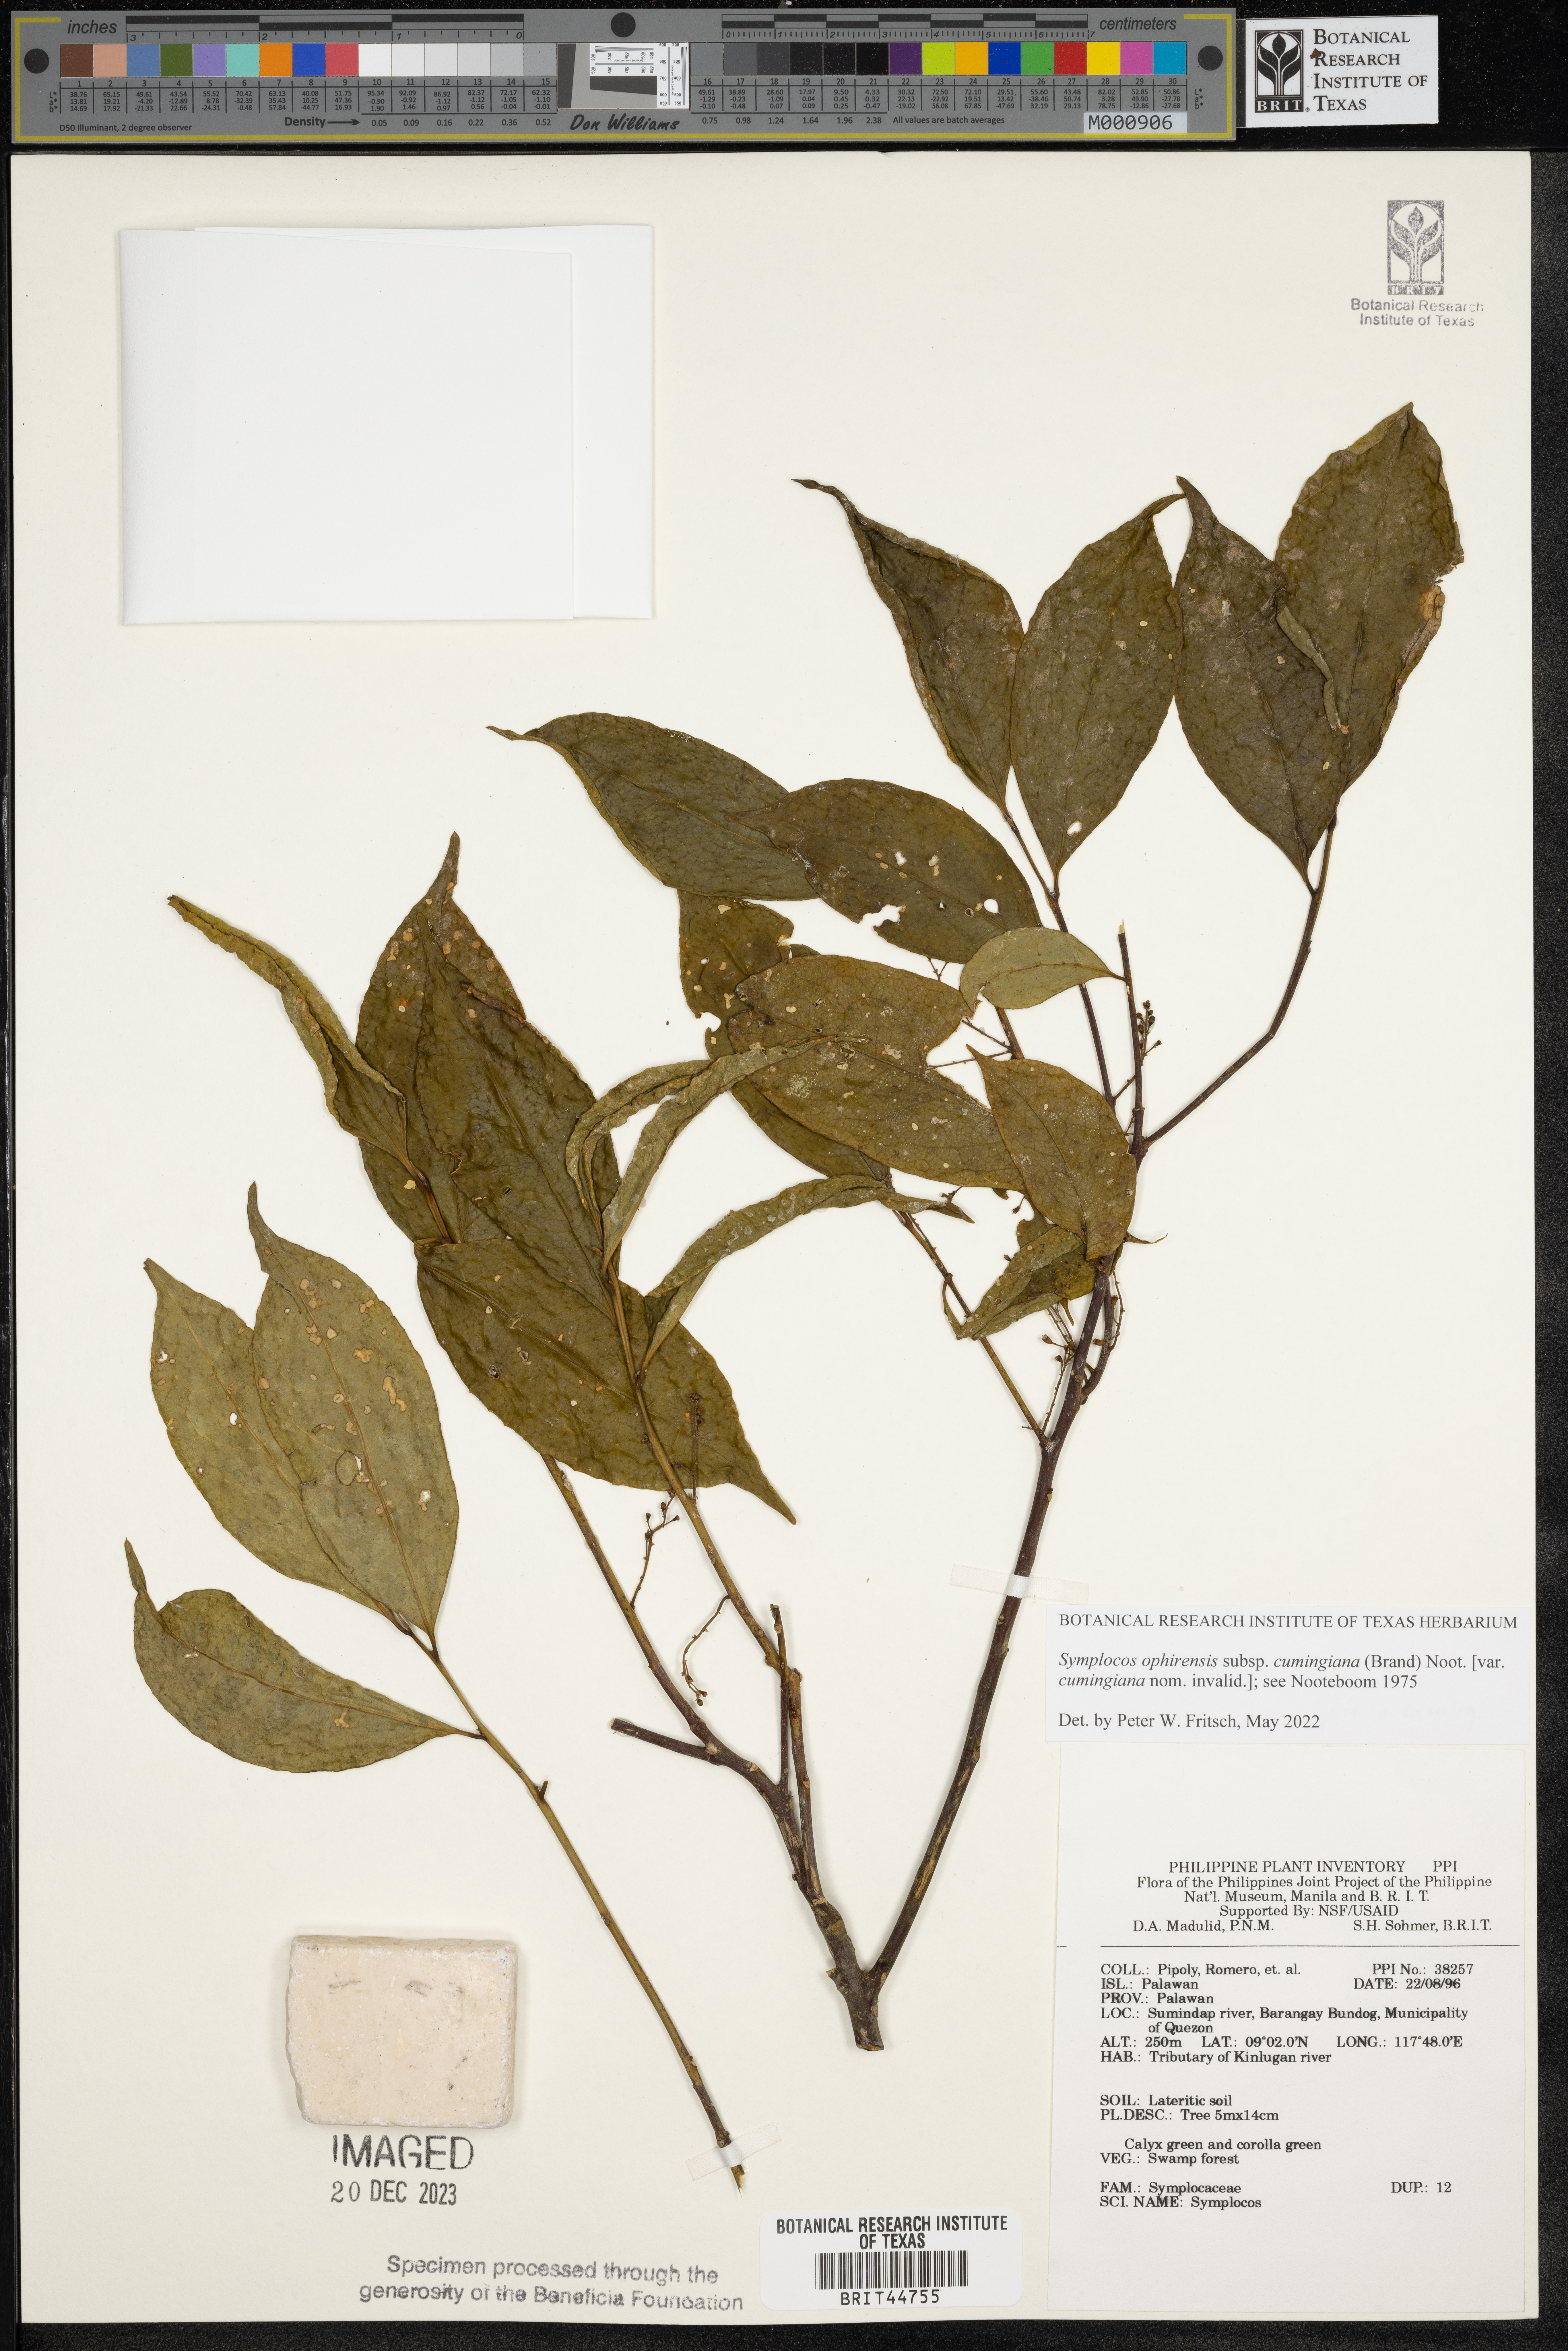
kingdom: Plantae
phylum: Tracheophyta
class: Magnoliopsida
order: Ericales
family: Symplocaceae
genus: Symplocos
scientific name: Symplocos
